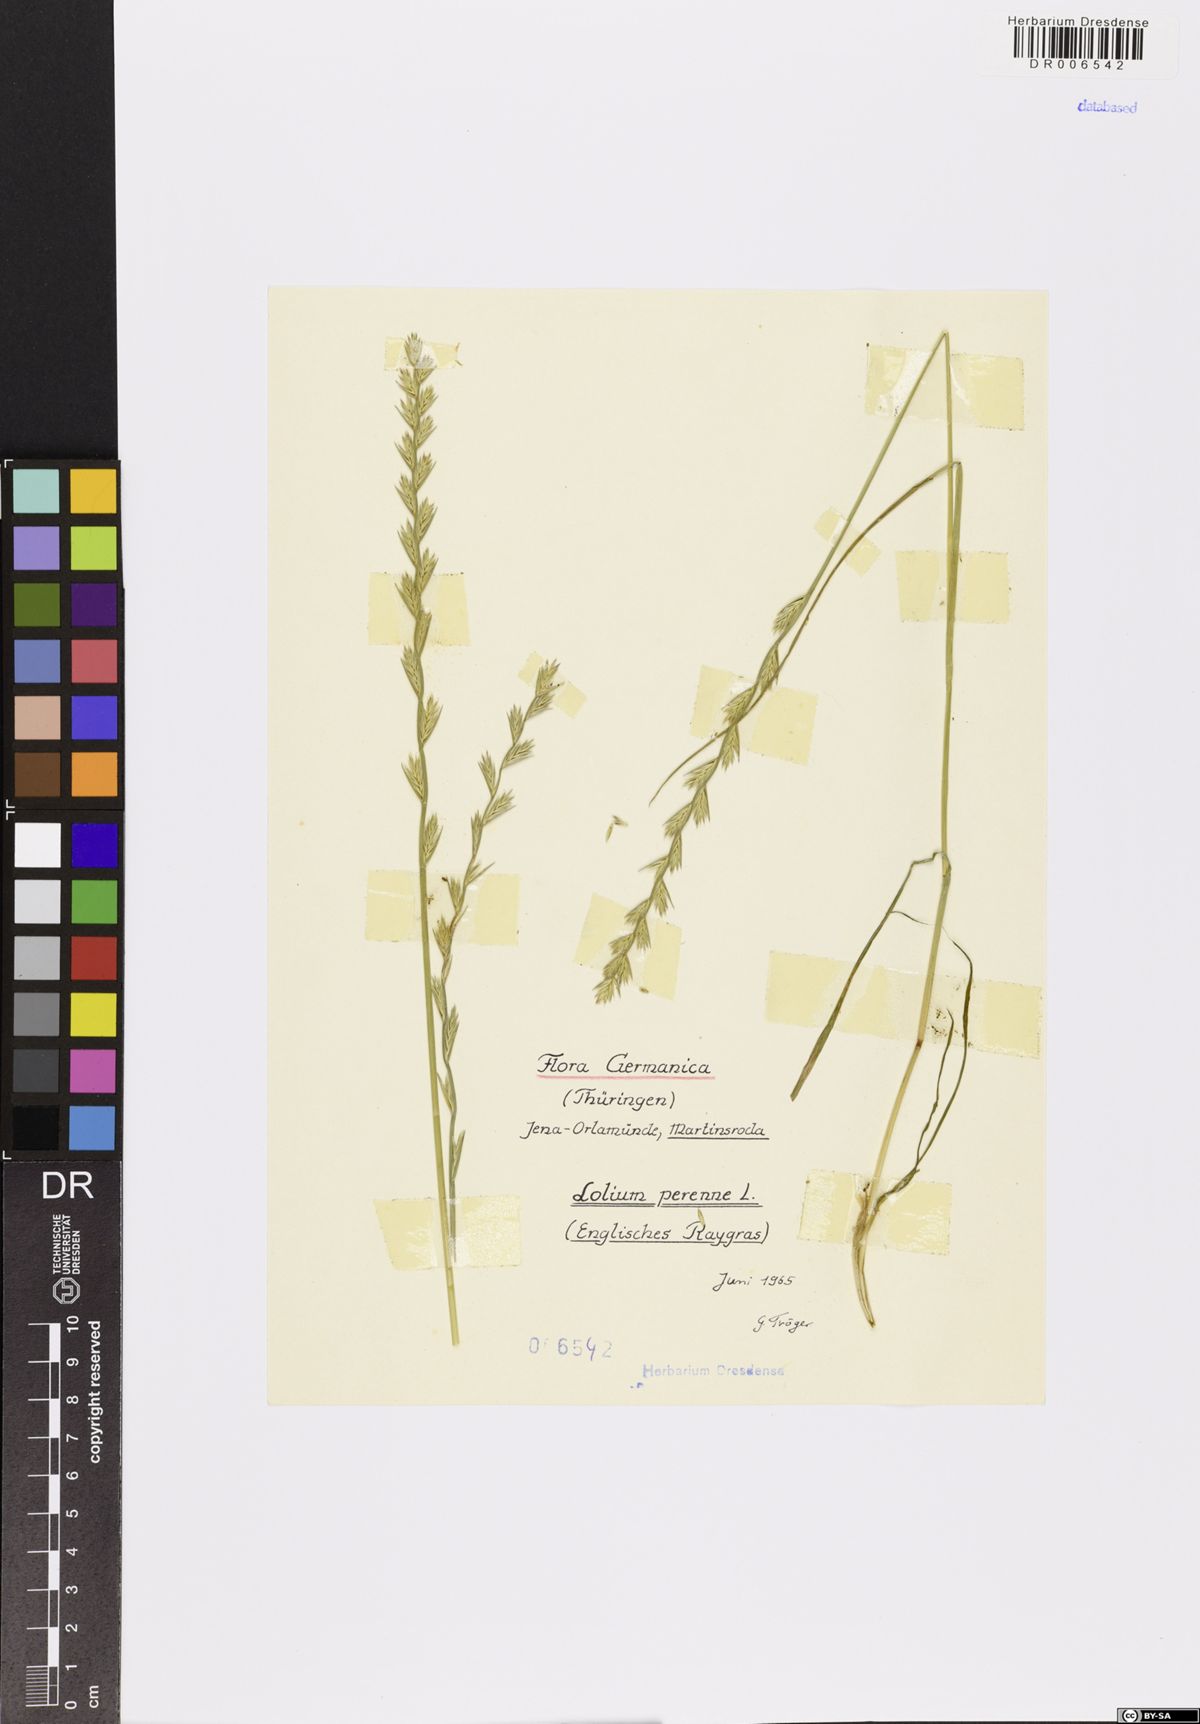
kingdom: Plantae
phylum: Tracheophyta
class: Liliopsida
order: Poales
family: Poaceae
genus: Lolium
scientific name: Lolium perenne
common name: Perennial ryegrass
